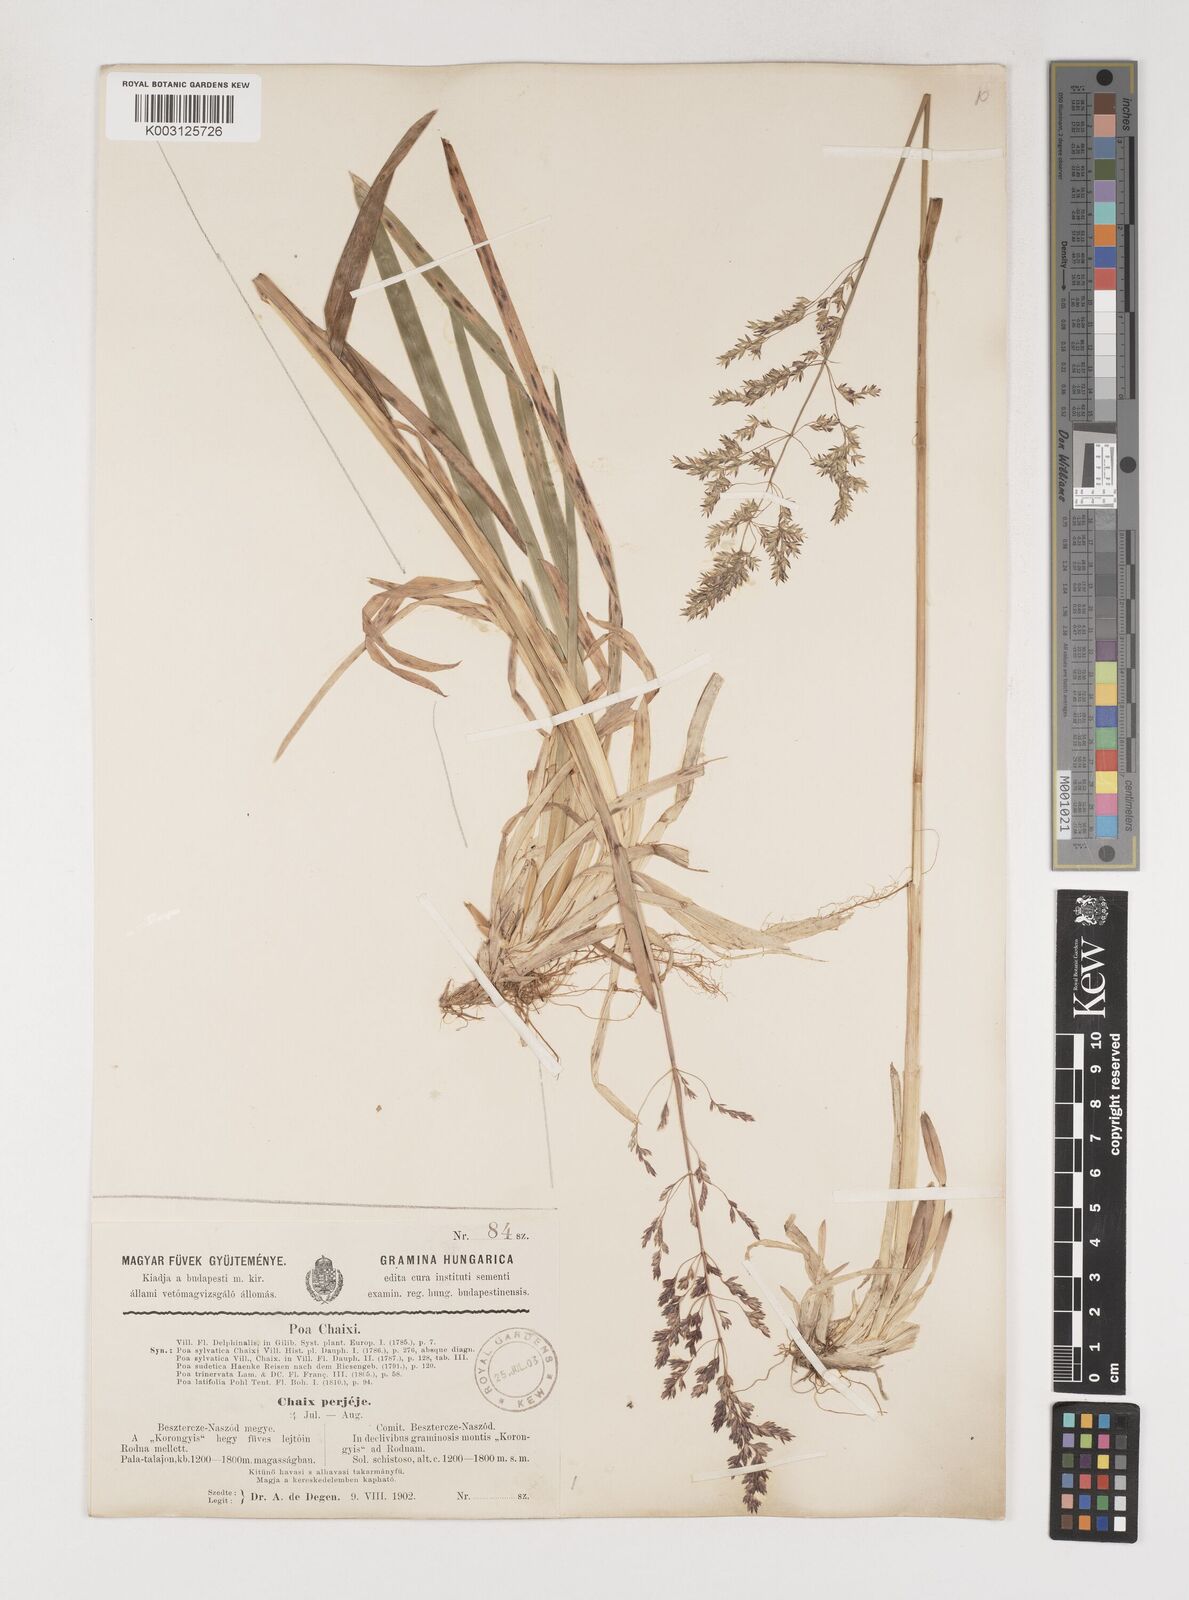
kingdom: Plantae
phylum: Tracheophyta
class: Liliopsida
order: Poales
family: Poaceae
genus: Poa
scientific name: Poa chaixii
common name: Broad-leaved meadow-grass
